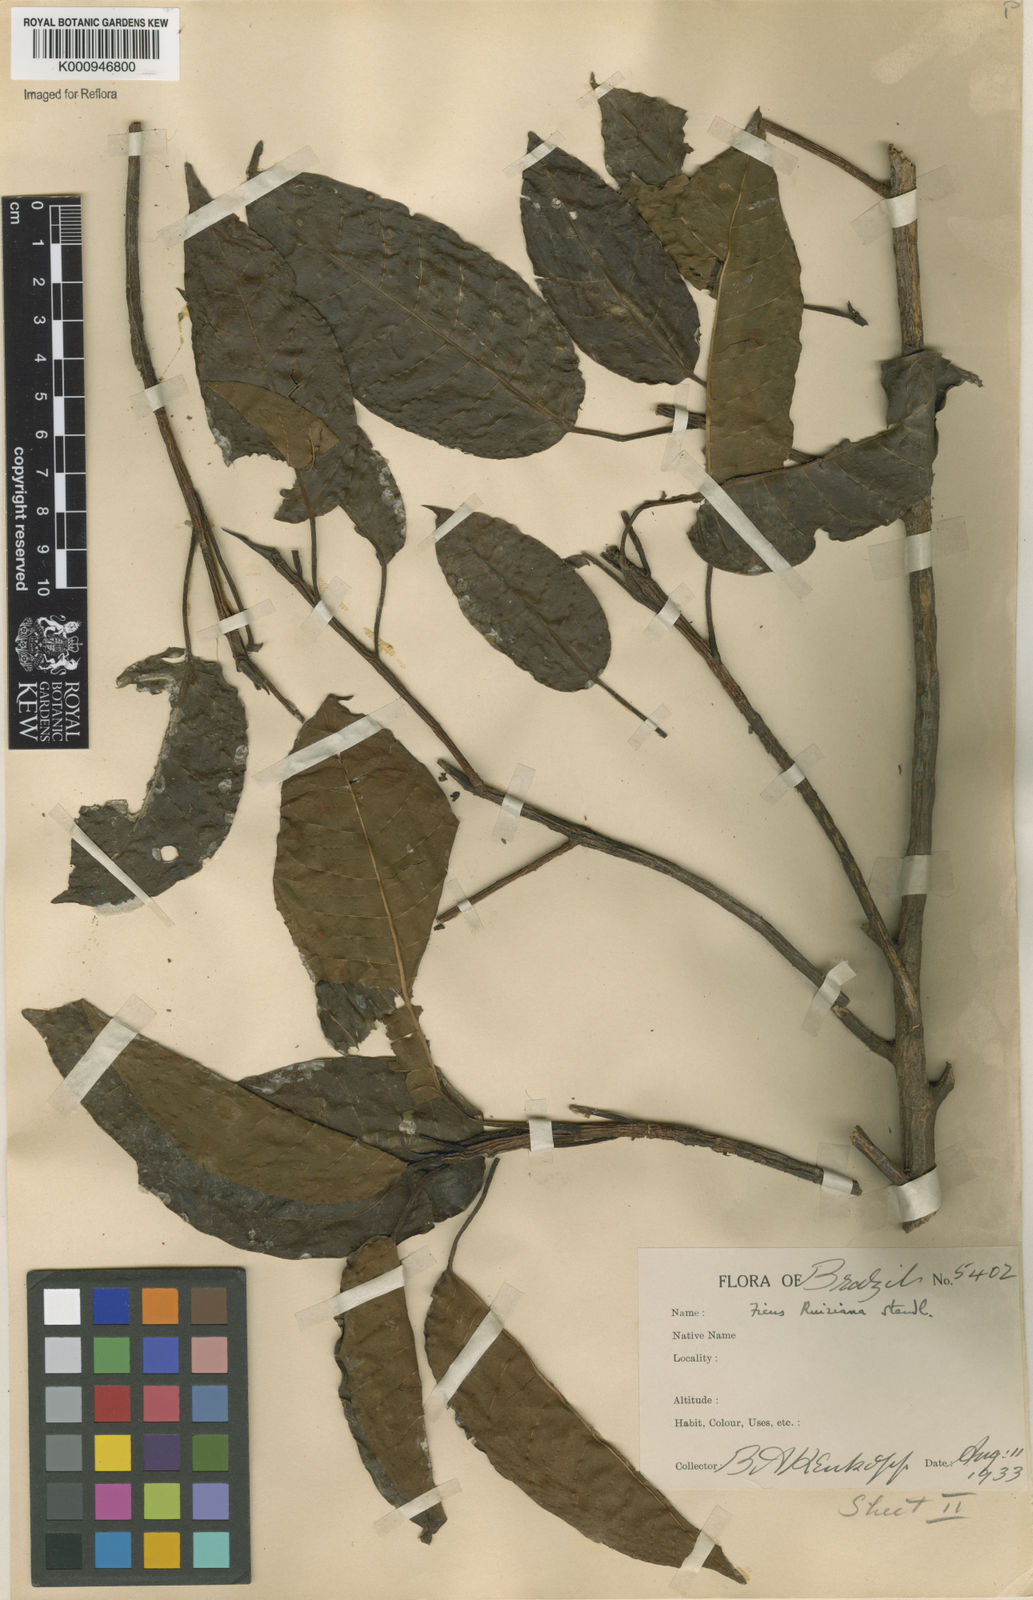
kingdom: Plantae
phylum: Tracheophyta
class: Magnoliopsida
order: Rosales
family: Moraceae
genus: Ficus
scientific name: Ficus citrifolia
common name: Strangler fig
